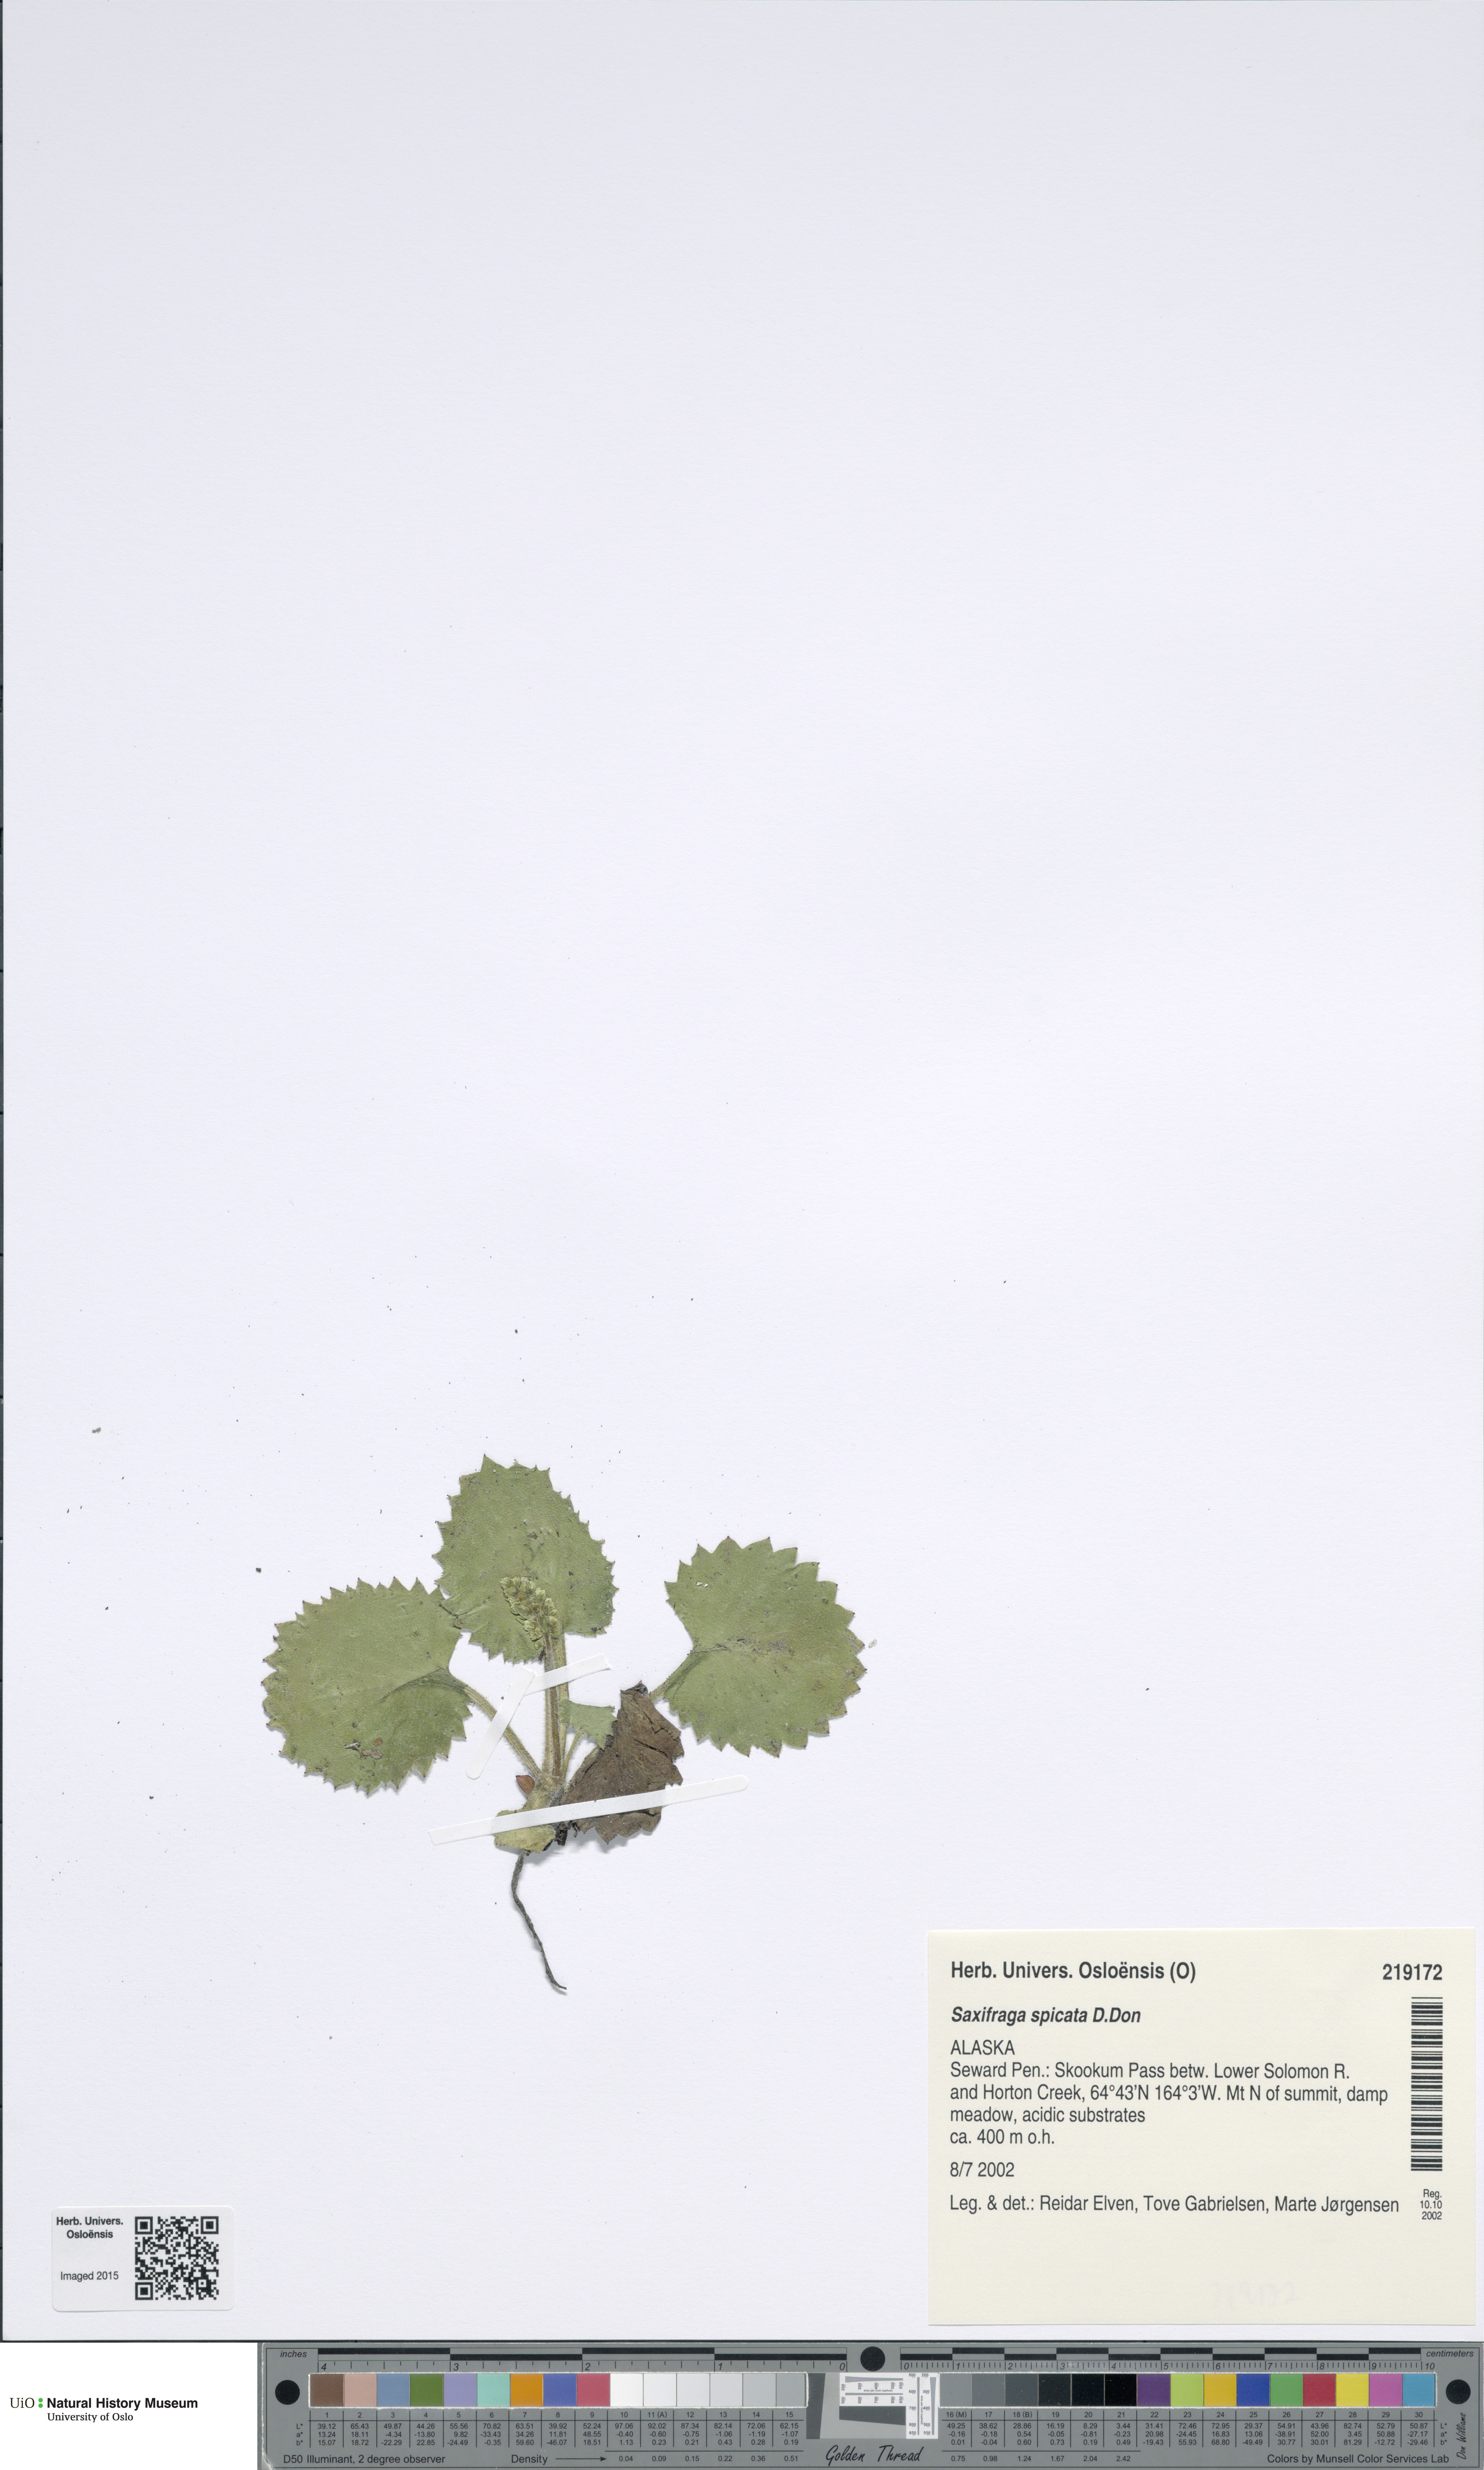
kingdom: Plantae
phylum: Tracheophyta
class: Magnoliopsida
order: Saxifragales
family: Saxifragaceae
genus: Micranthes
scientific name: Micranthes spicata
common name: Spiked saxifrage
